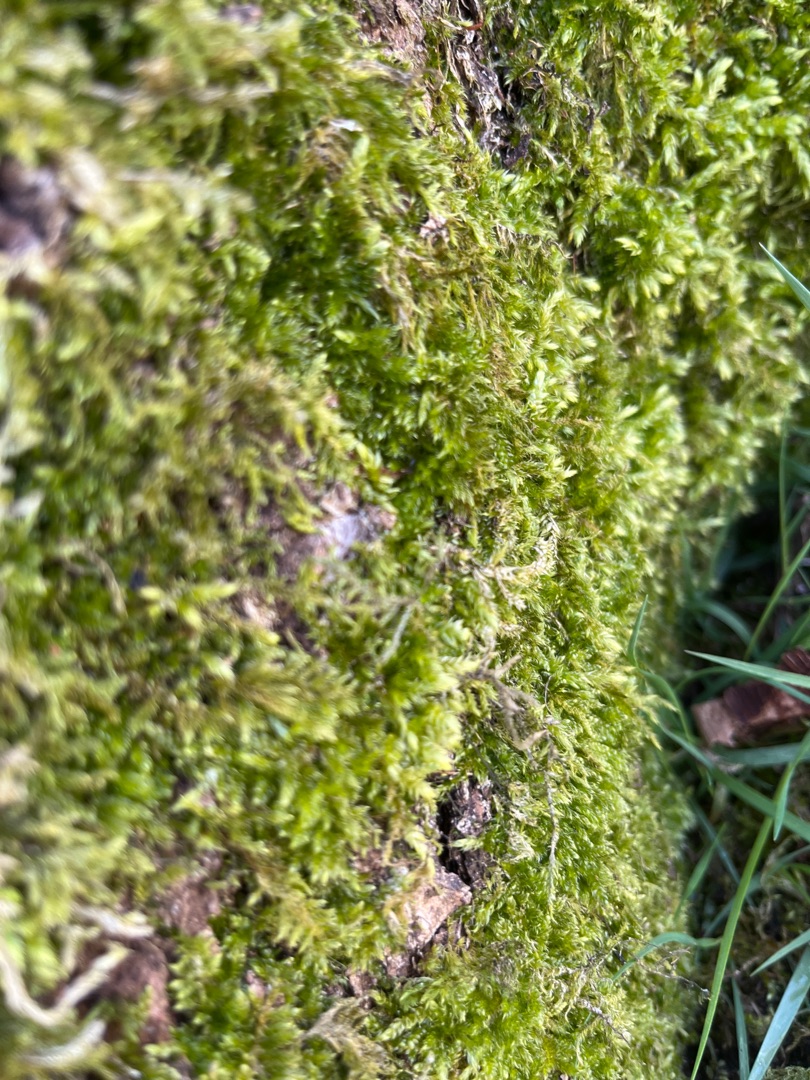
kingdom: Plantae
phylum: Bryophyta
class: Bryopsida
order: Hypnales
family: Hypnaceae
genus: Hypnum
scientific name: Hypnum
